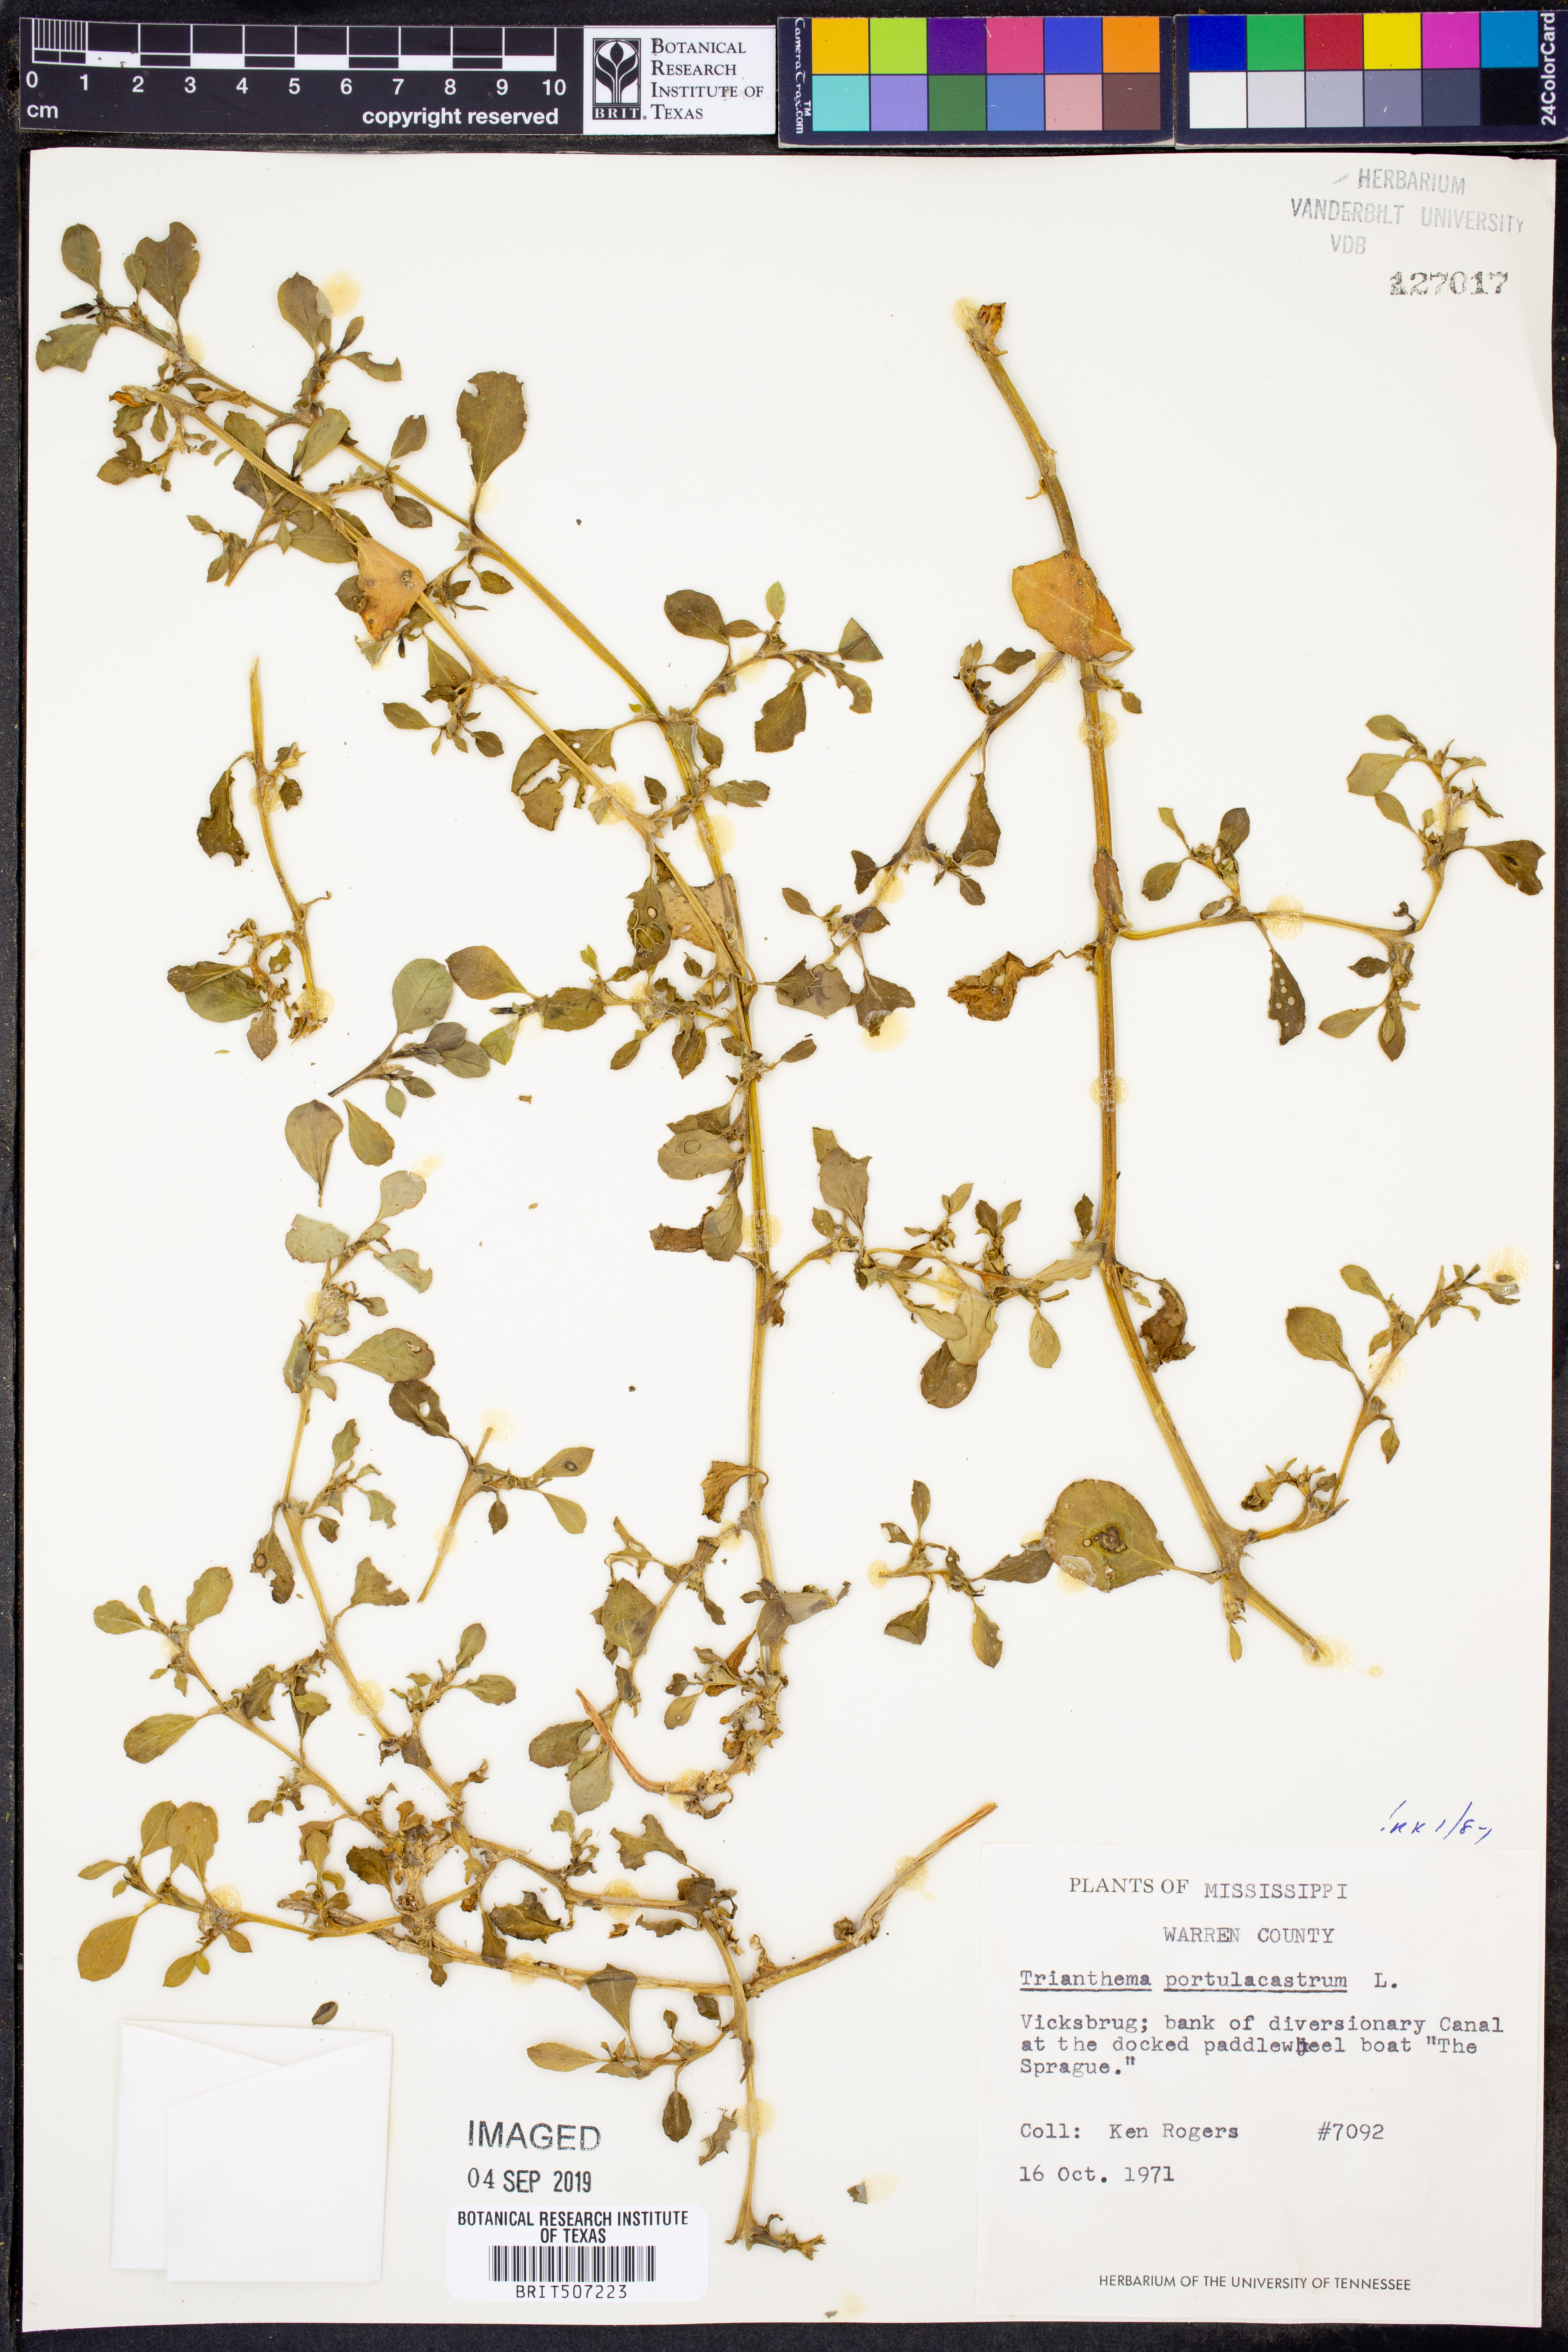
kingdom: Plantae
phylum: Tracheophyta
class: Magnoliopsida
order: Caryophyllales
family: Aizoaceae
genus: Trianthema
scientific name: Trianthema portulacastrum
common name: Desert horsepurslane
